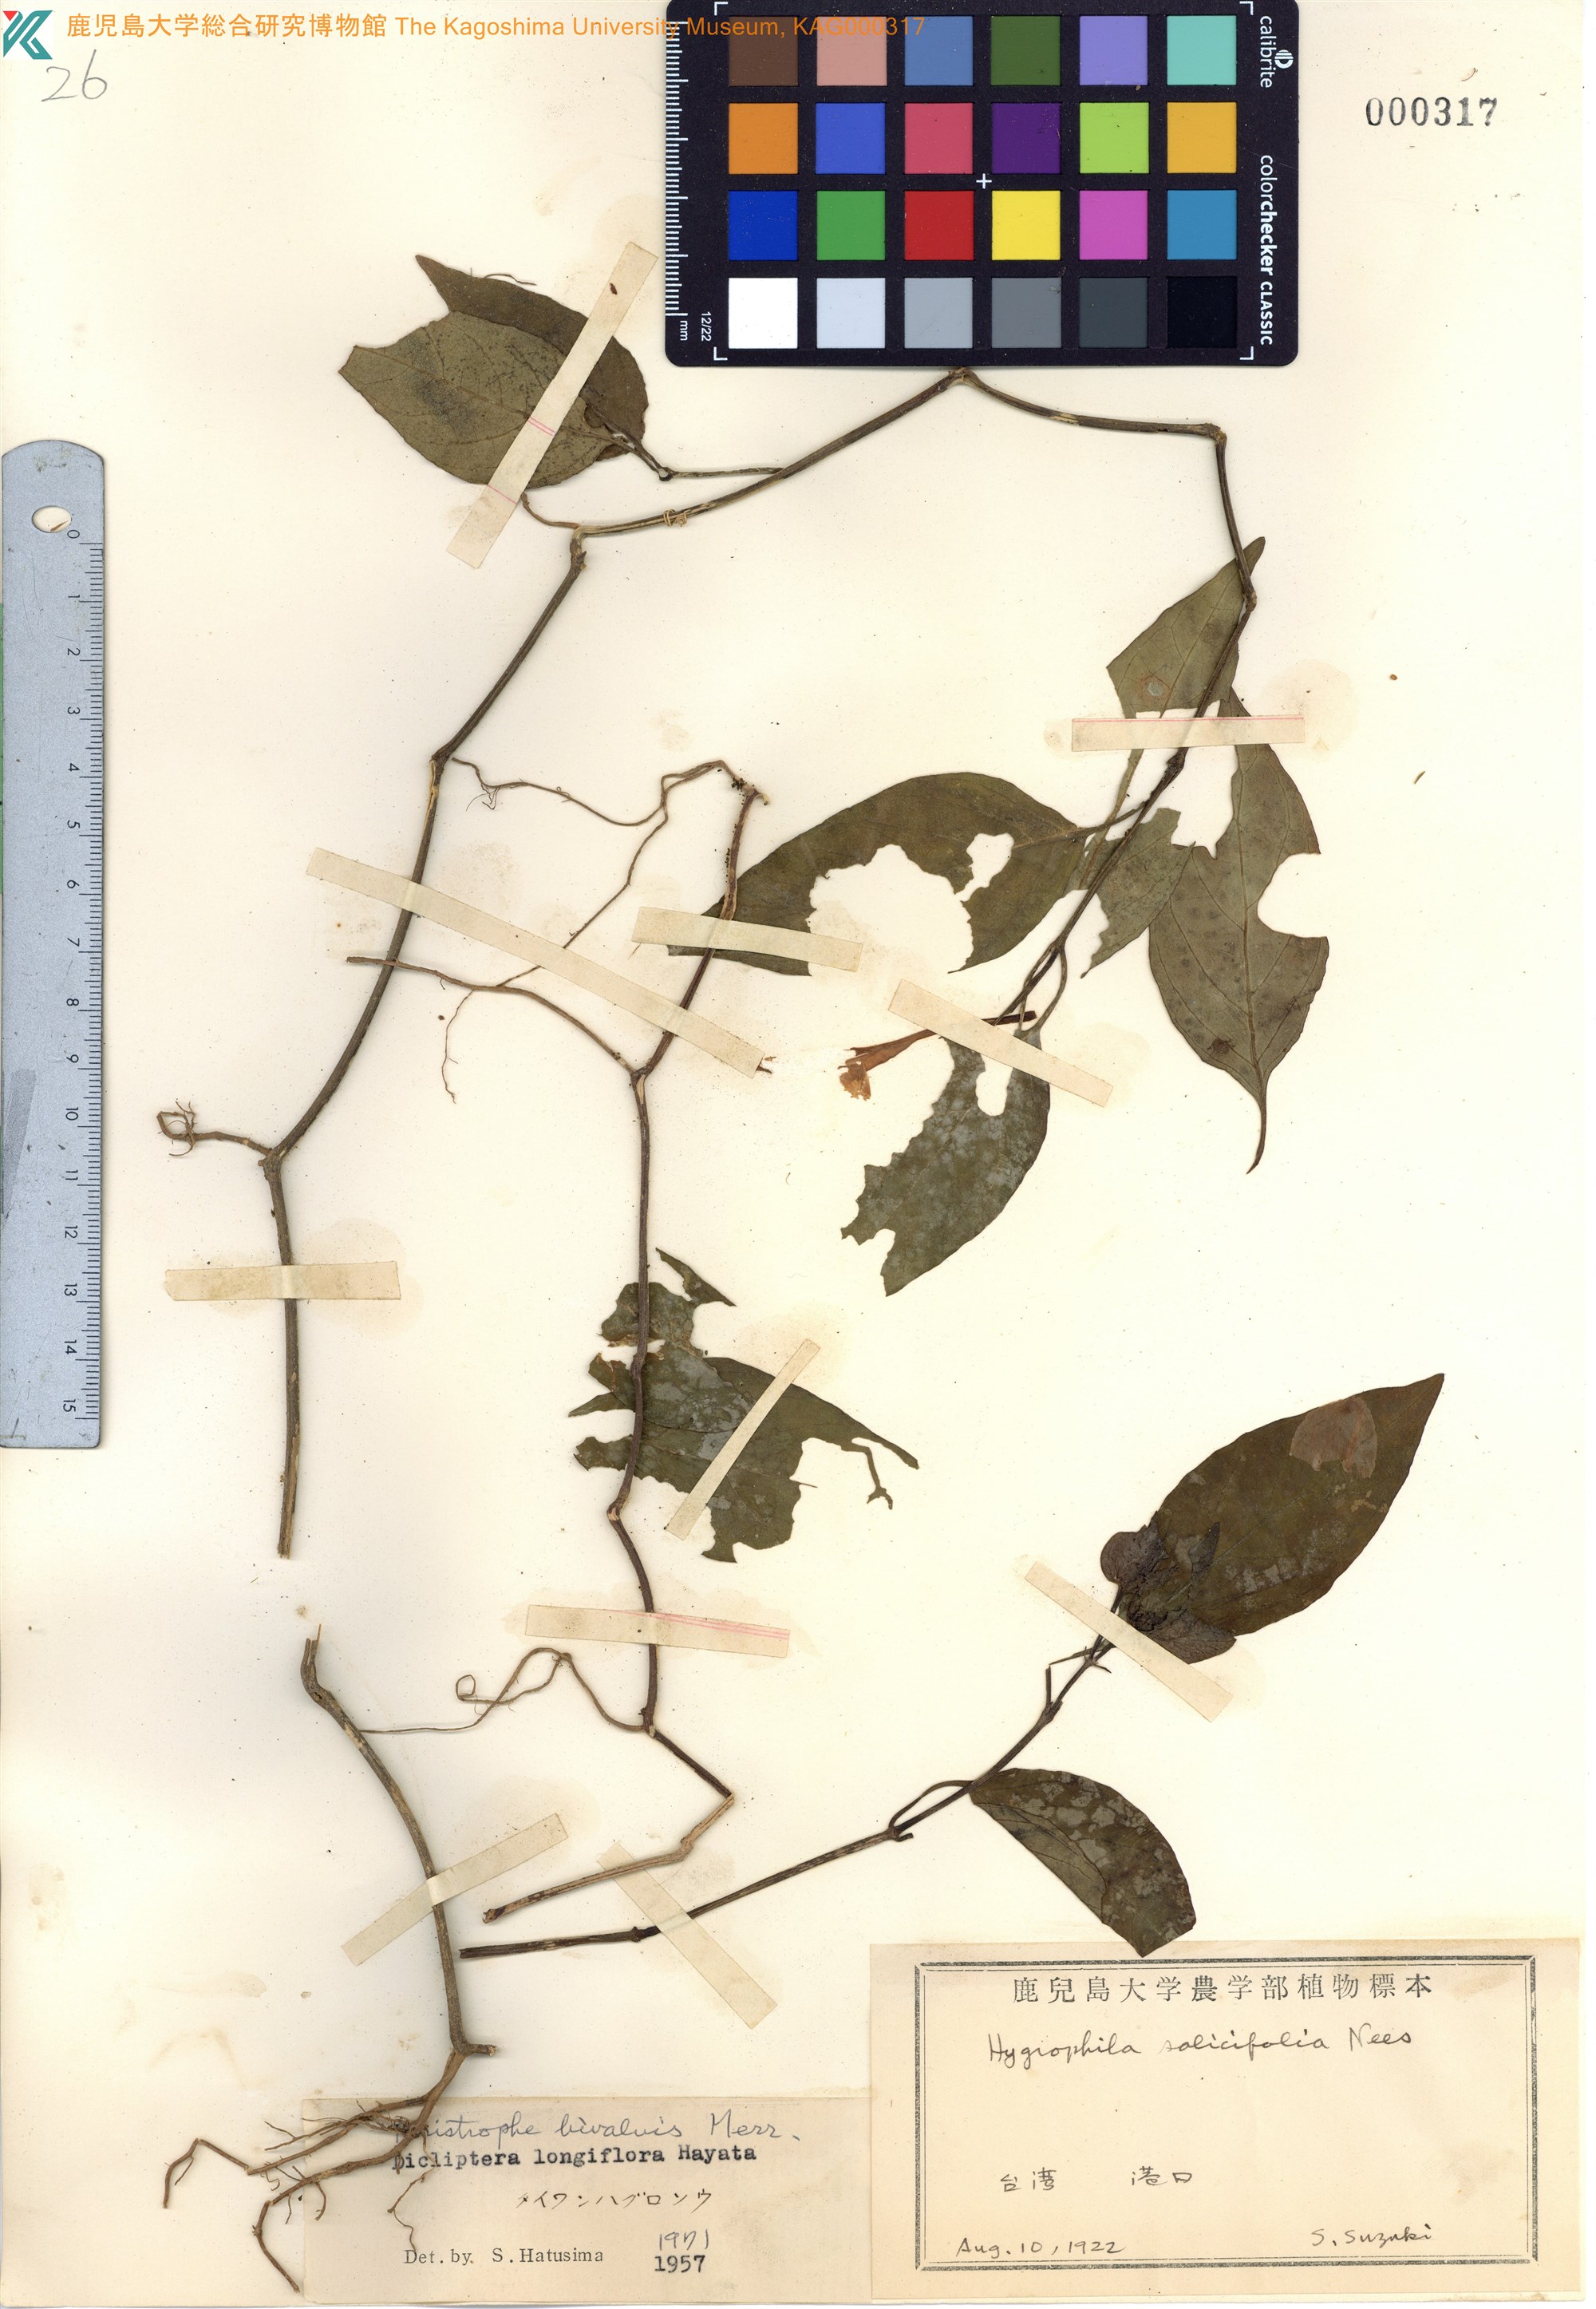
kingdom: Plantae
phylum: Tracheophyta
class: Magnoliopsida
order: Lamiales
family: Acanthaceae
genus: Dicliptera
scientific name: Dicliptera tinctoria
